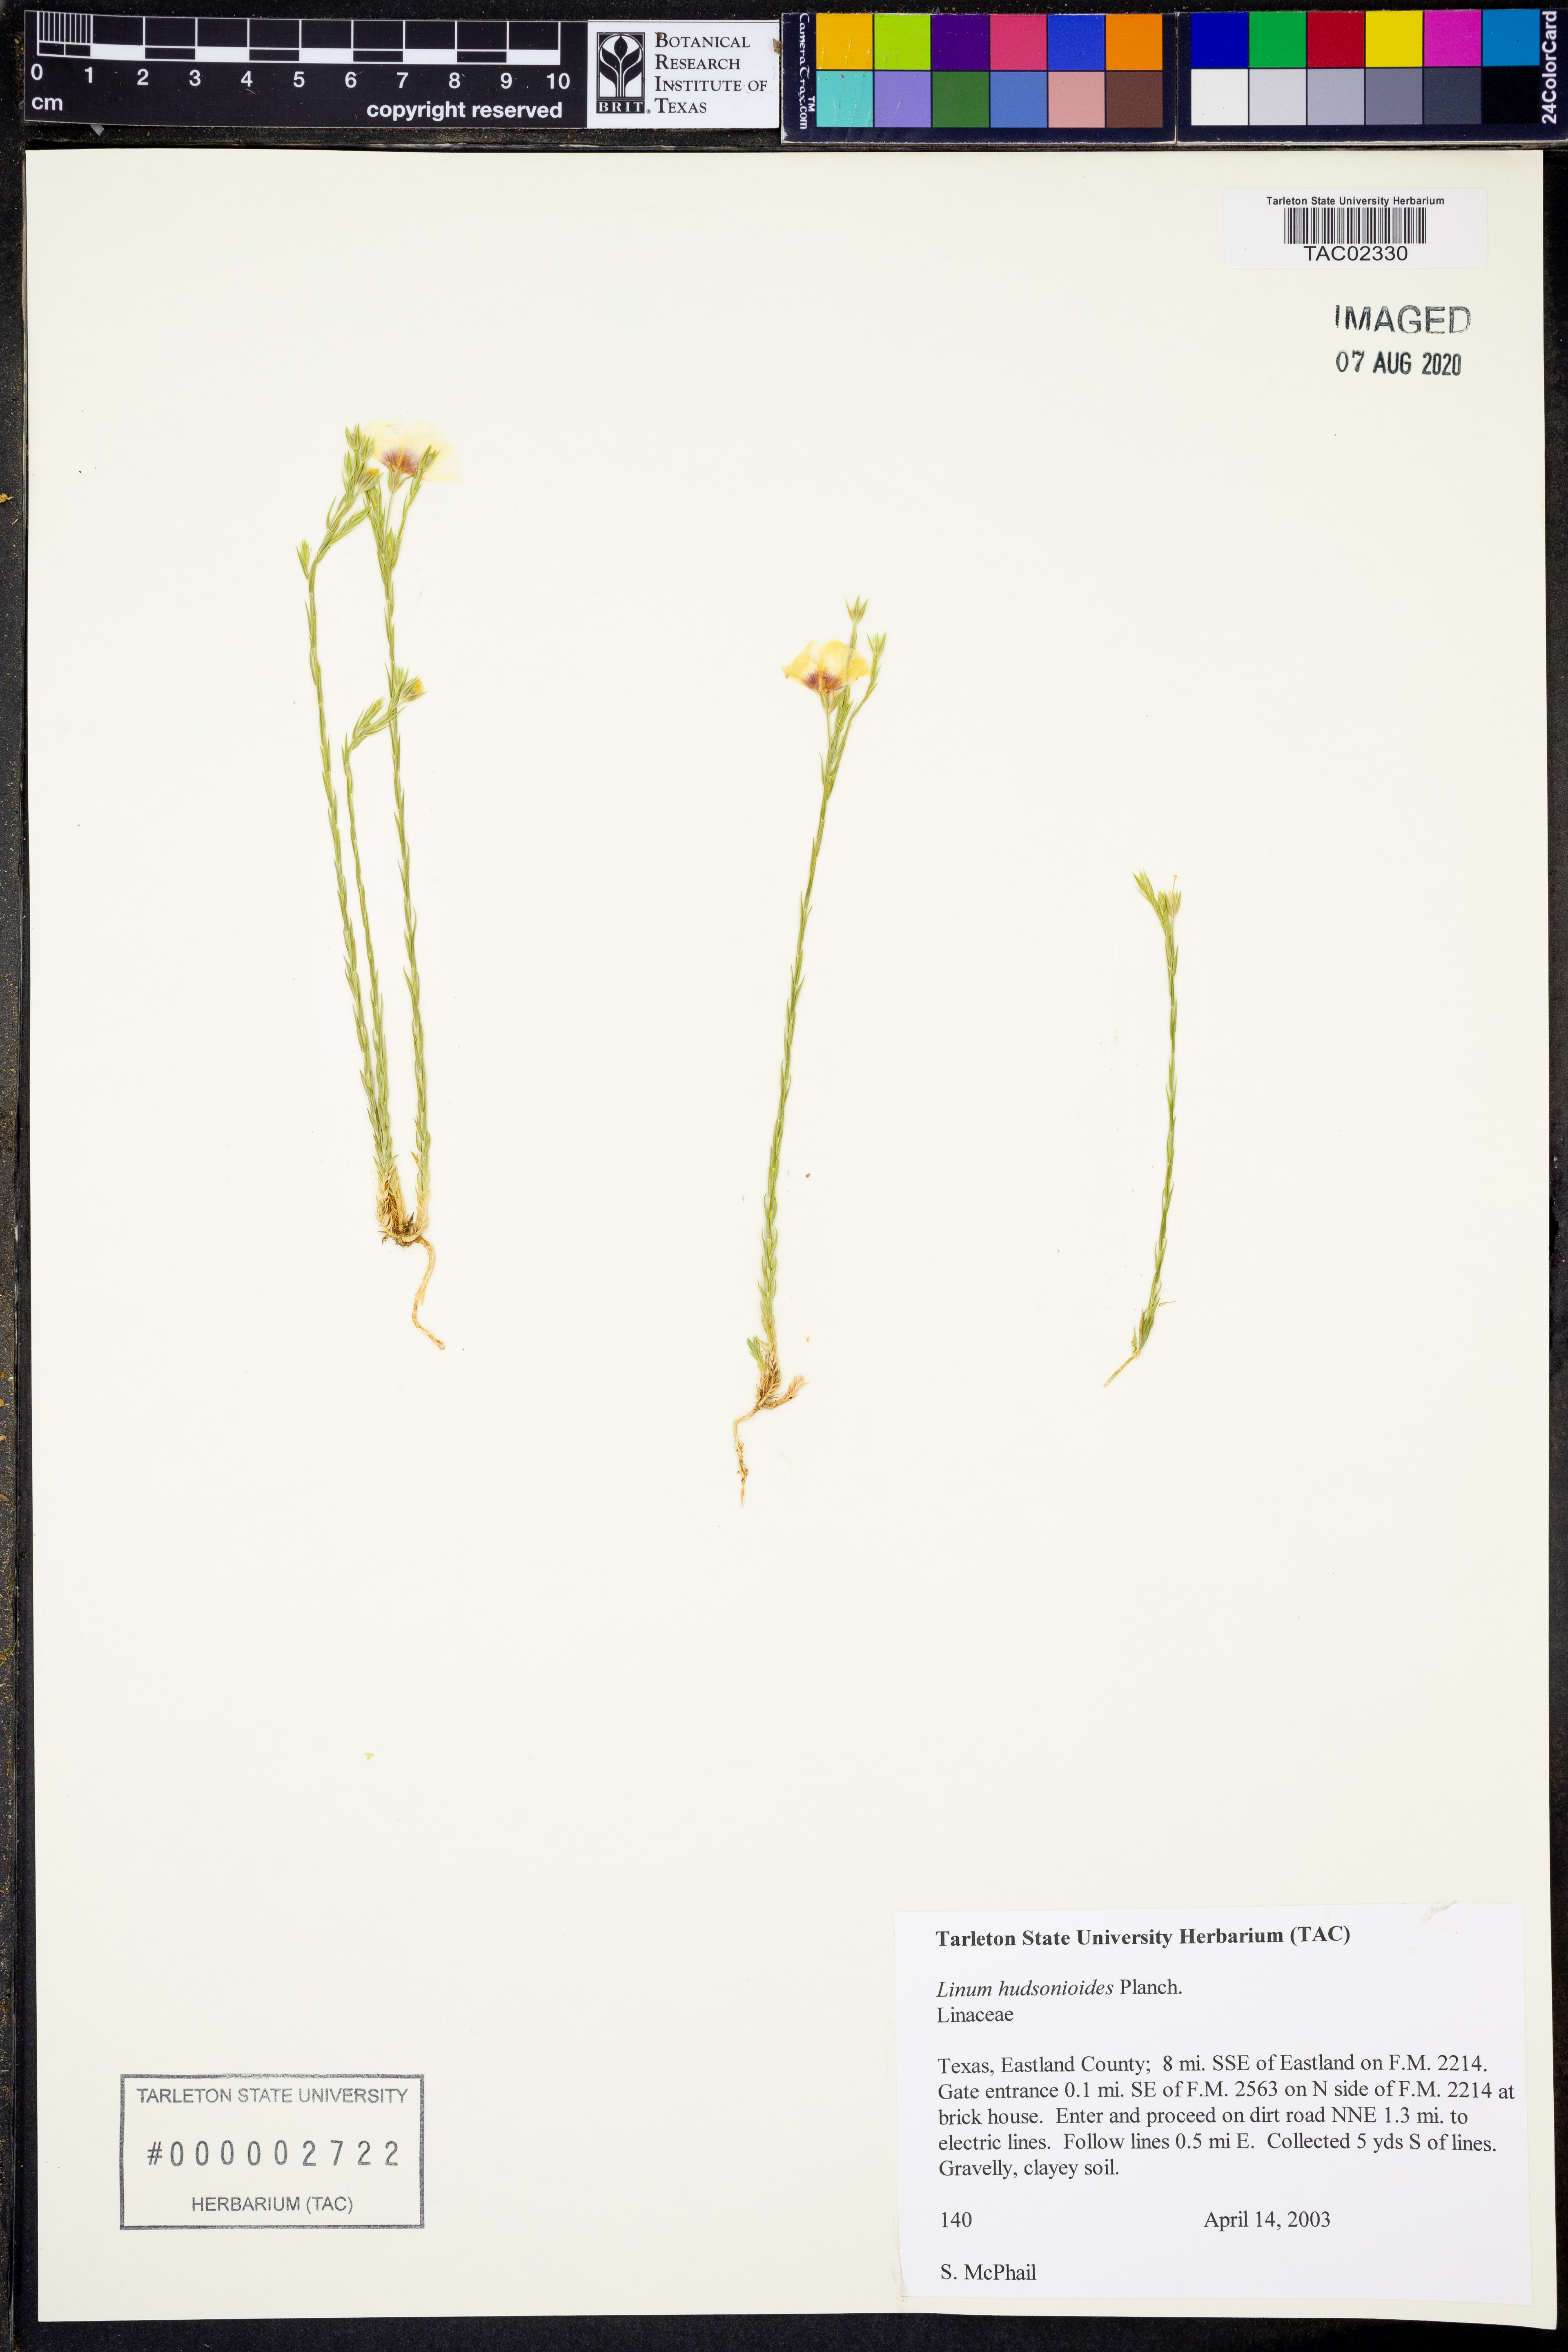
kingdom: Plantae
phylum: Tracheophyta
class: Magnoliopsida
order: Malpighiales
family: Linaceae
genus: Linum
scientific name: Linum hudsonioides
